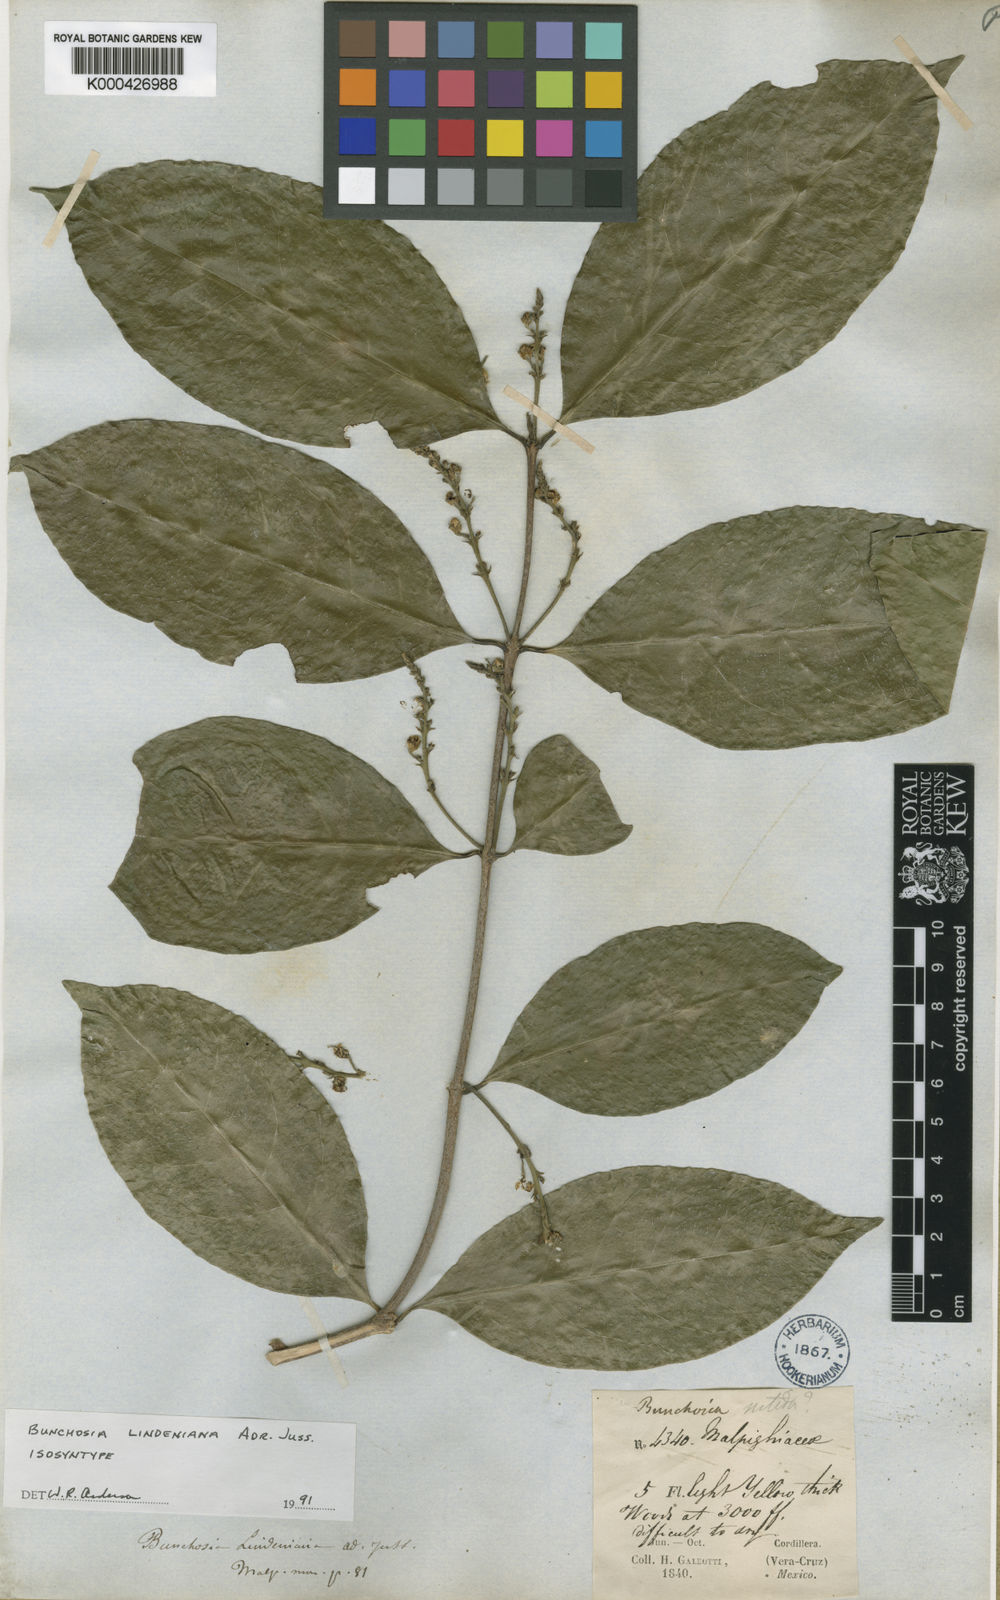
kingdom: Plantae
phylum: Tracheophyta
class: Magnoliopsida
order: Malpighiales
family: Malpighiaceae
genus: Bunchosia
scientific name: Bunchosia lindeniana
